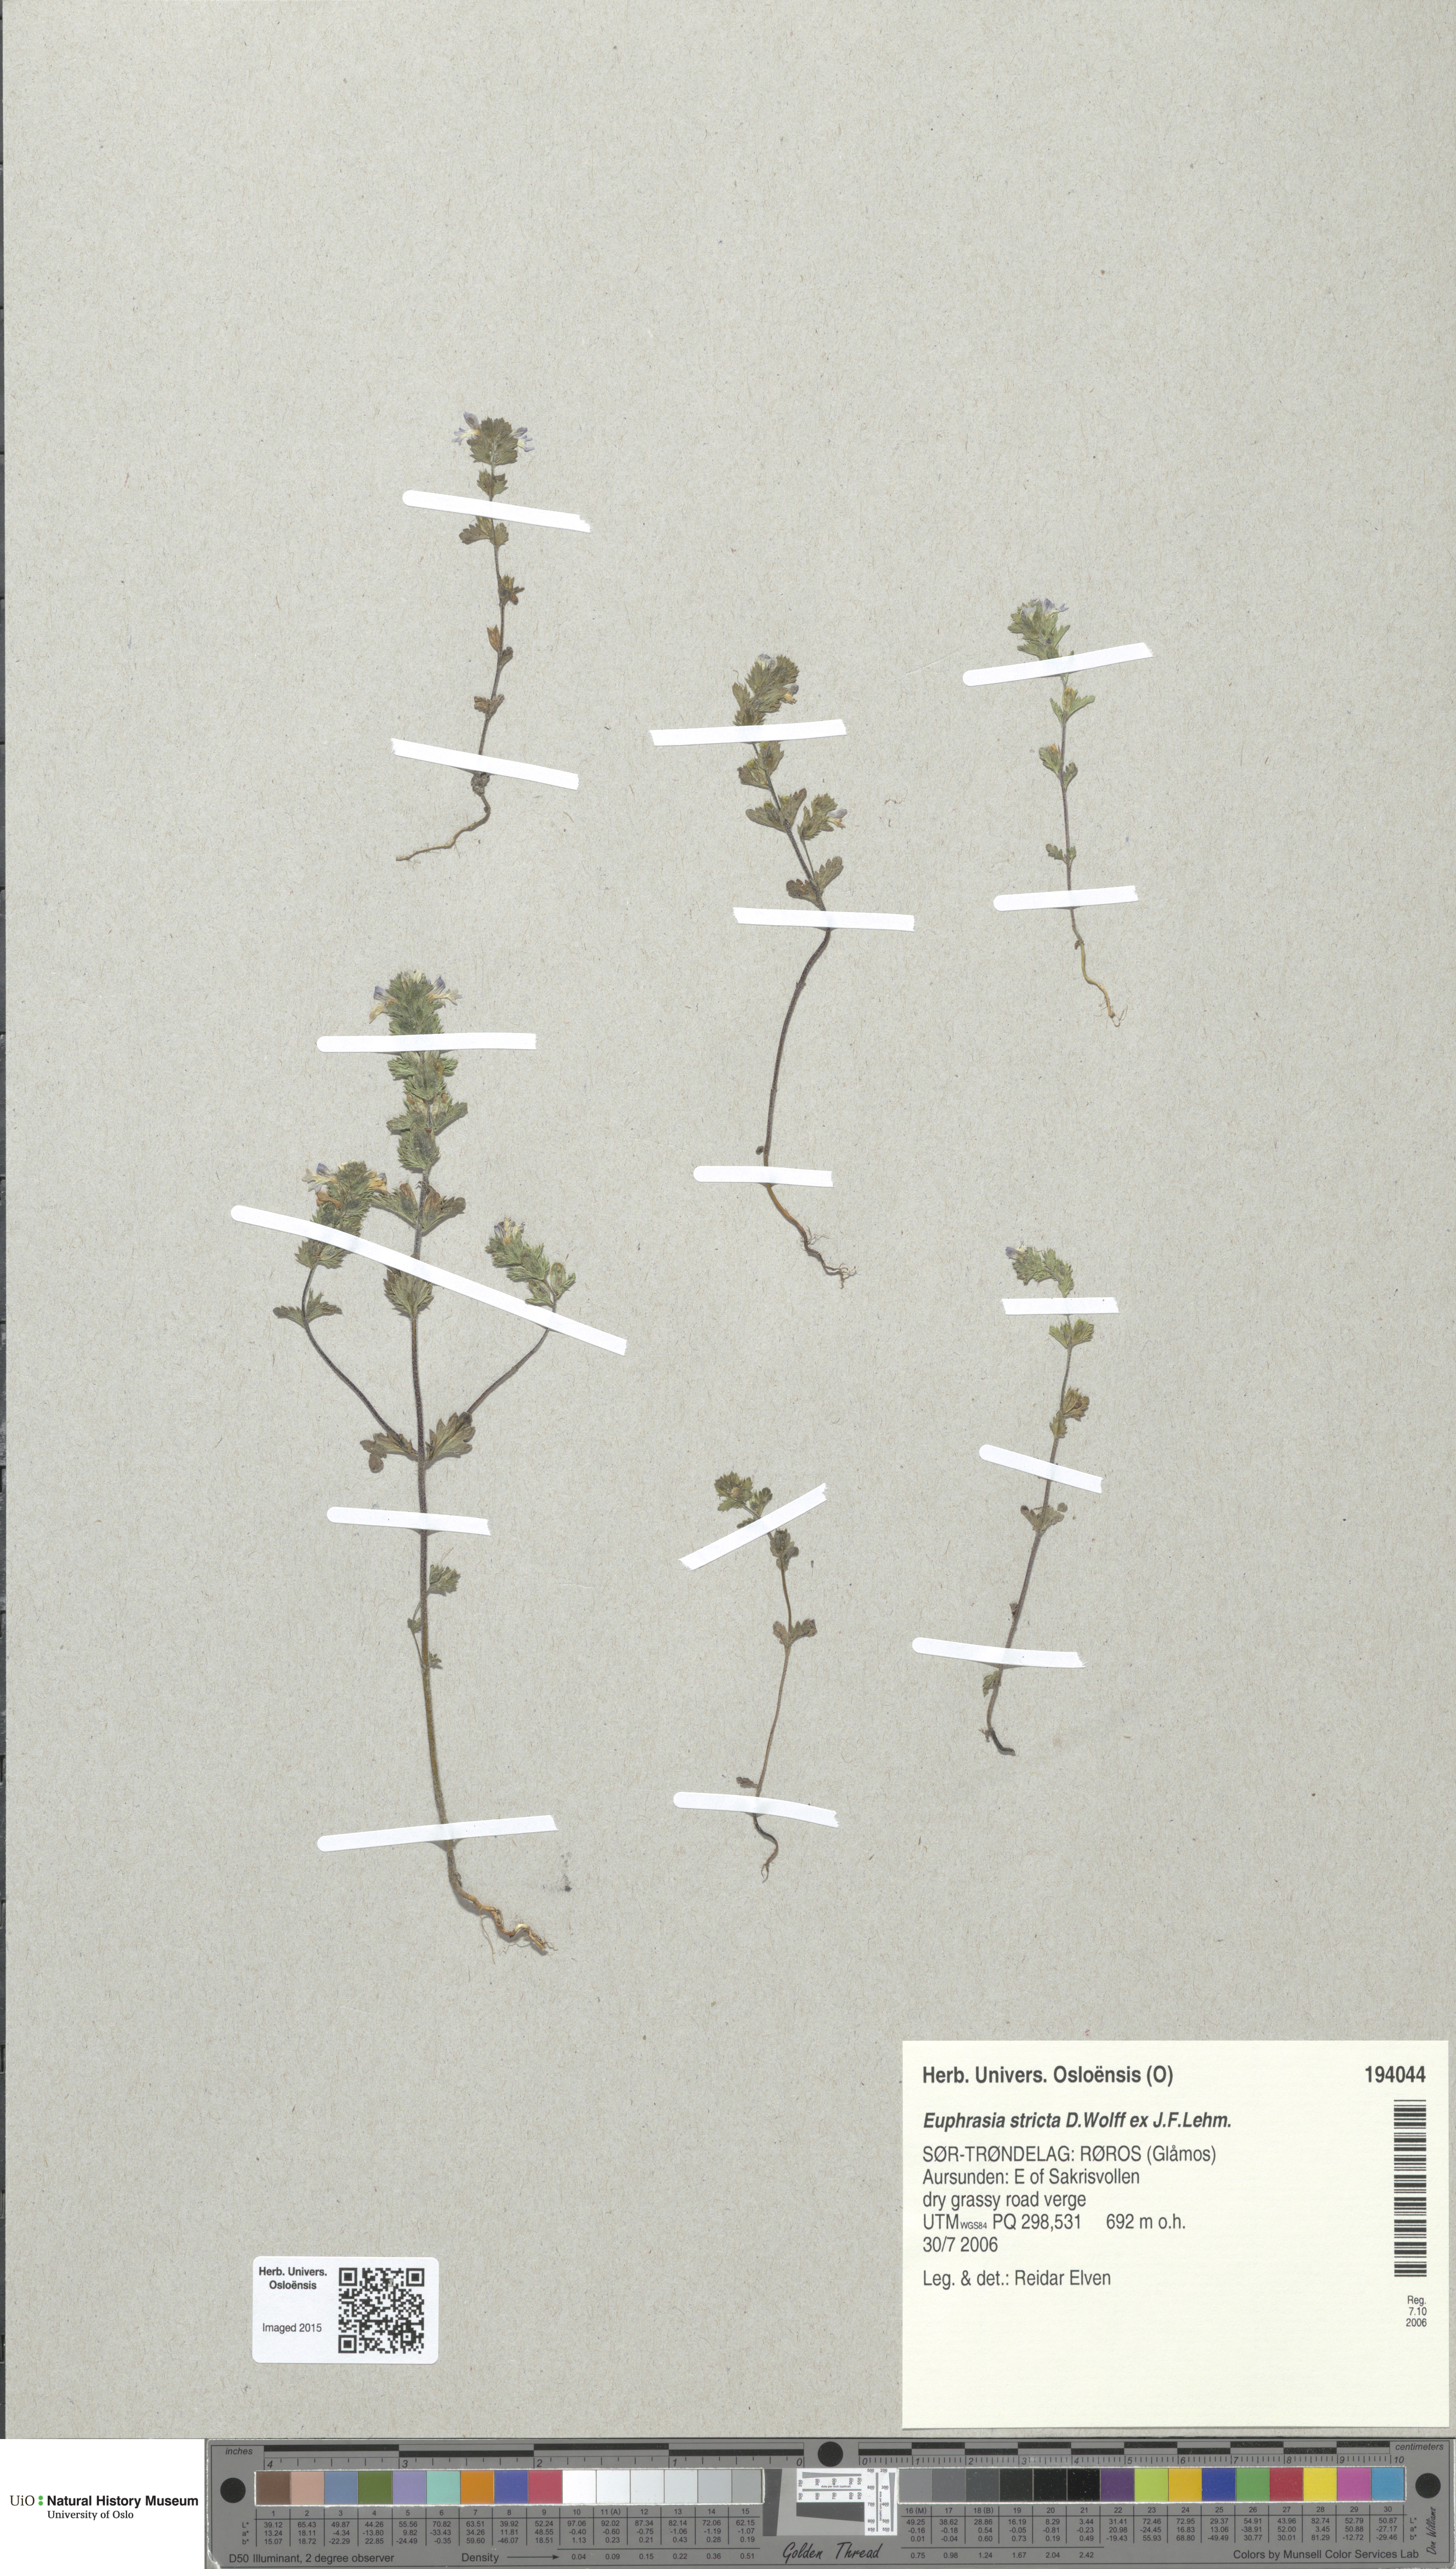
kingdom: Plantae
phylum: Tracheophyta
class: Magnoliopsida
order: Lamiales
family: Orobanchaceae
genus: Euphrasia
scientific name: Euphrasia stricta
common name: Drug eyebright
